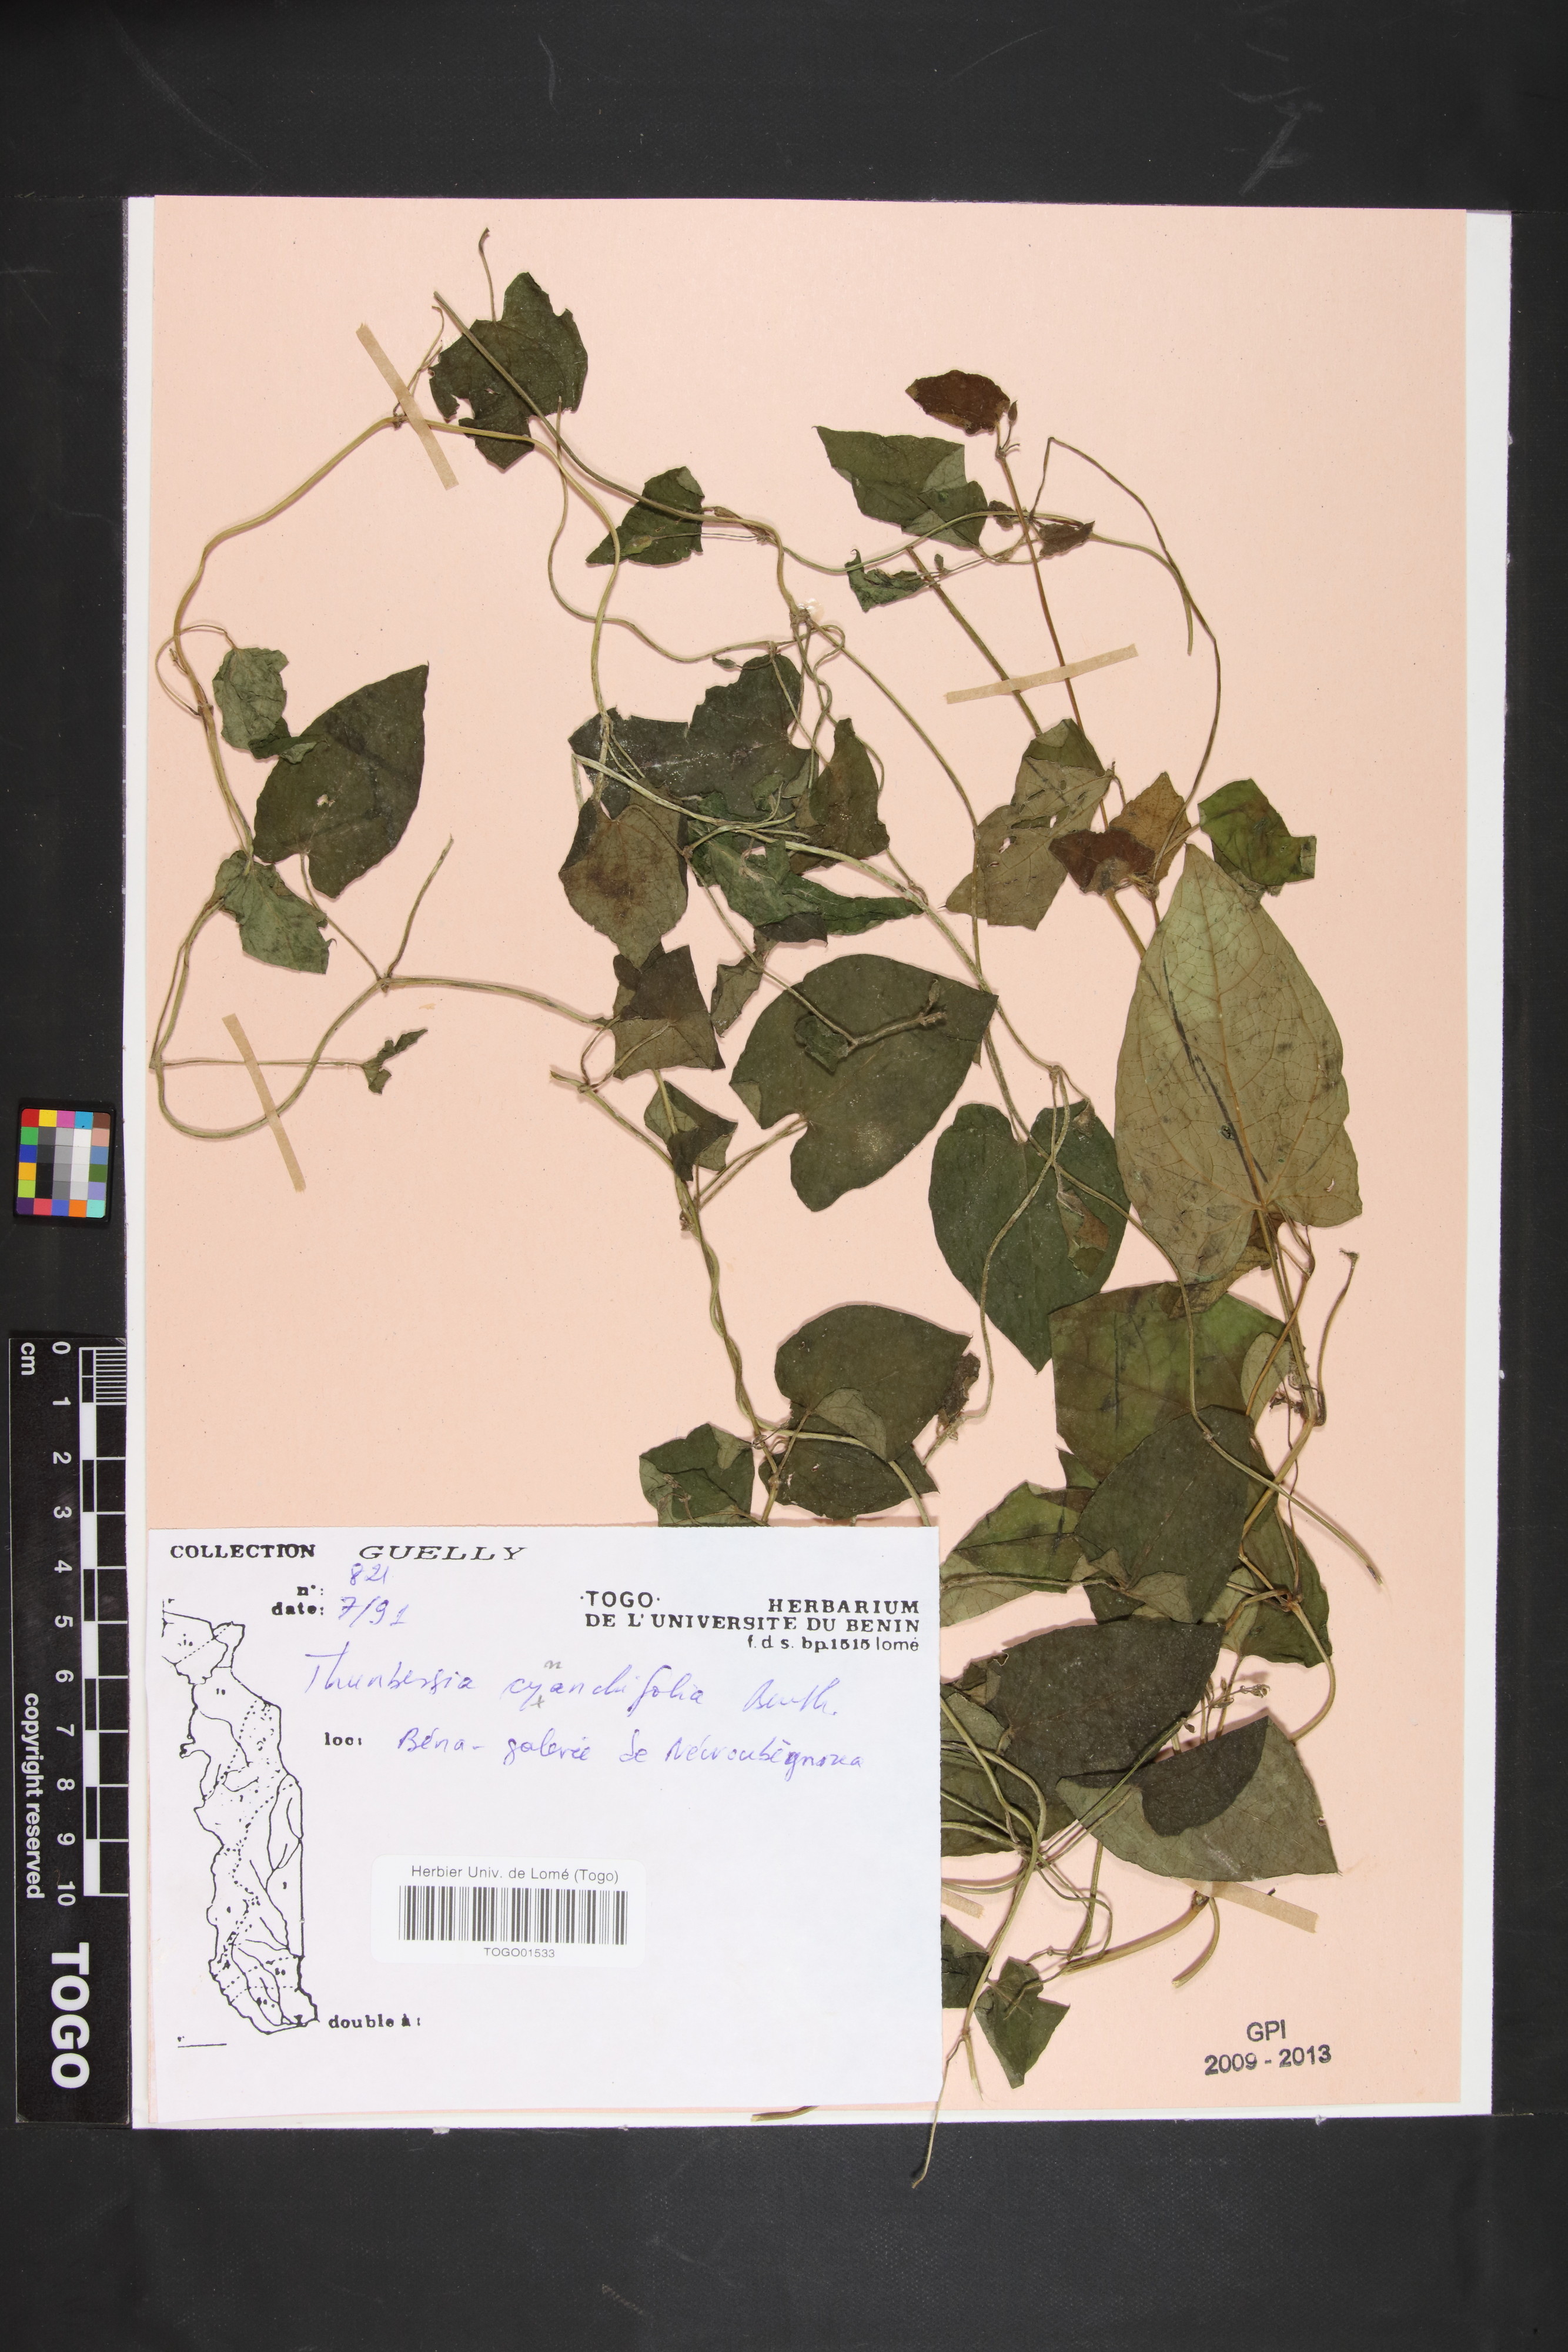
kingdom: Plantae
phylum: Tracheophyta
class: Magnoliopsida
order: Lamiales
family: Acanthaceae
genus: Thunbergia
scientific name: Thunbergia cynanchifolia
